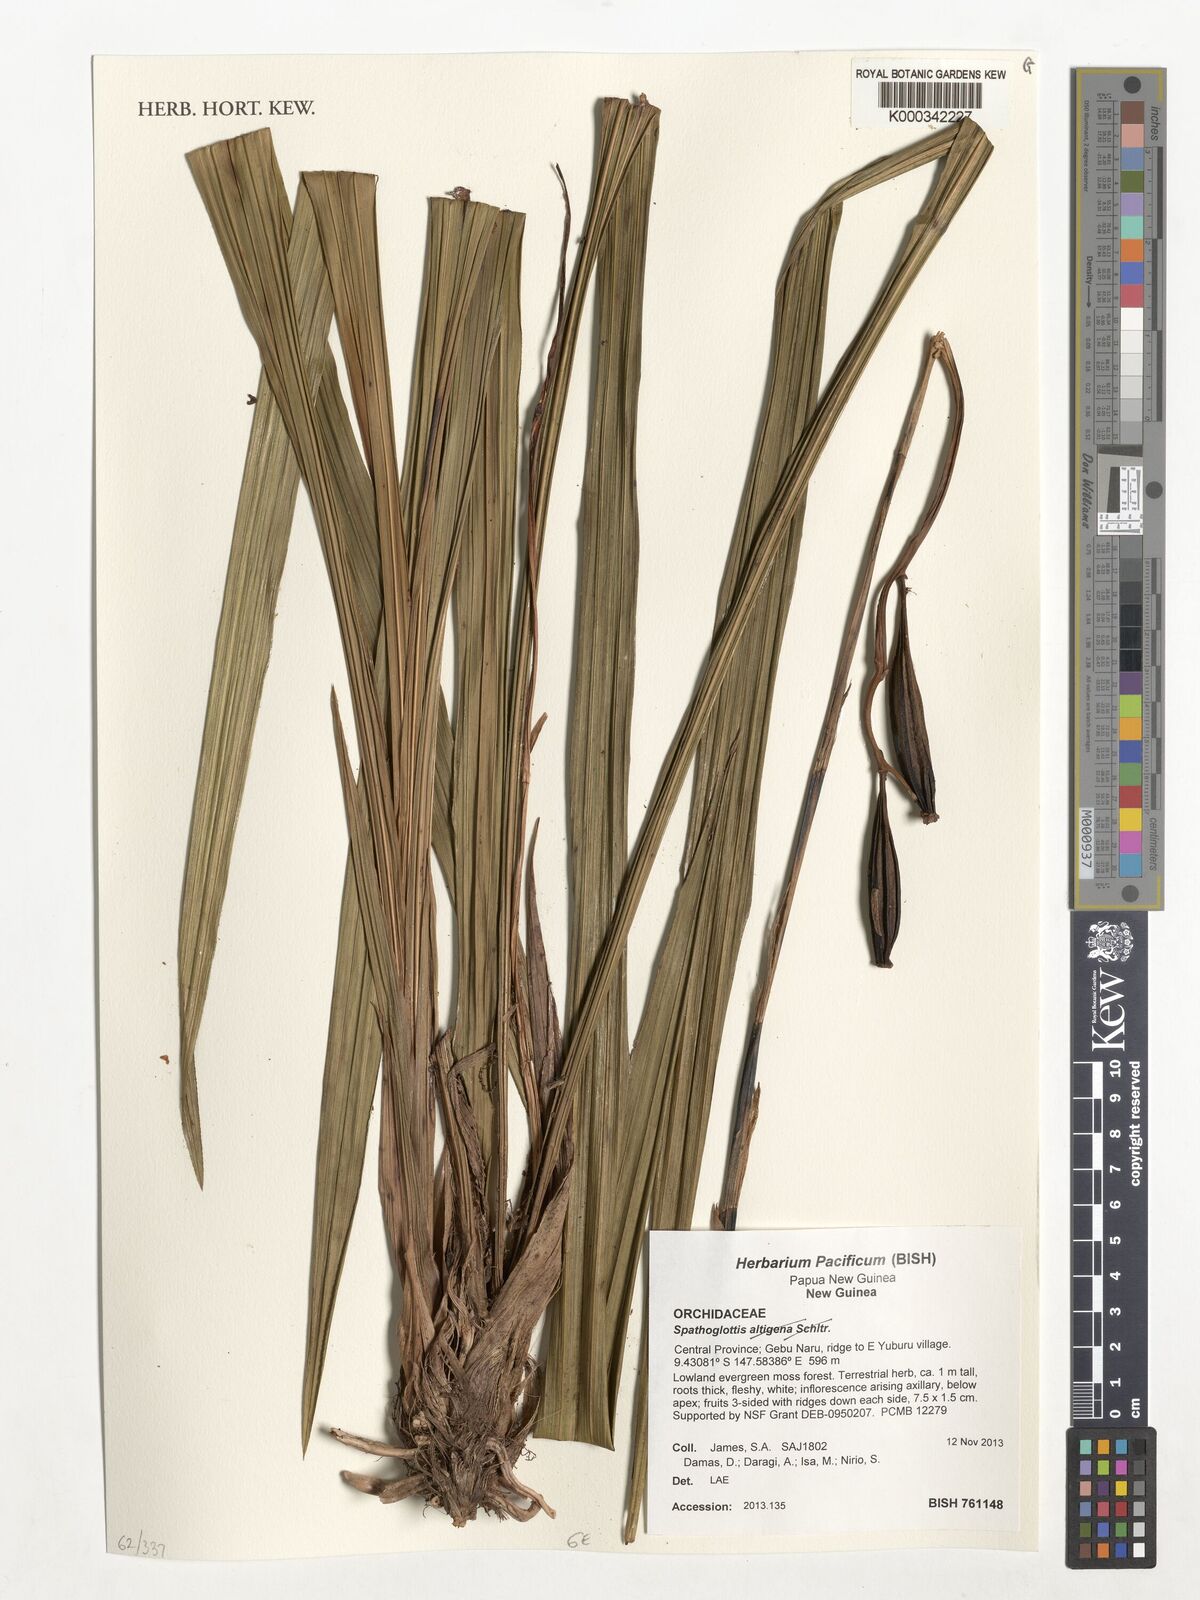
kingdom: Plantae
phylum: Tracheophyta
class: Liliopsida
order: Asparagales
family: Orchidaceae
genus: Spathoglottis
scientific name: Spathoglottis
